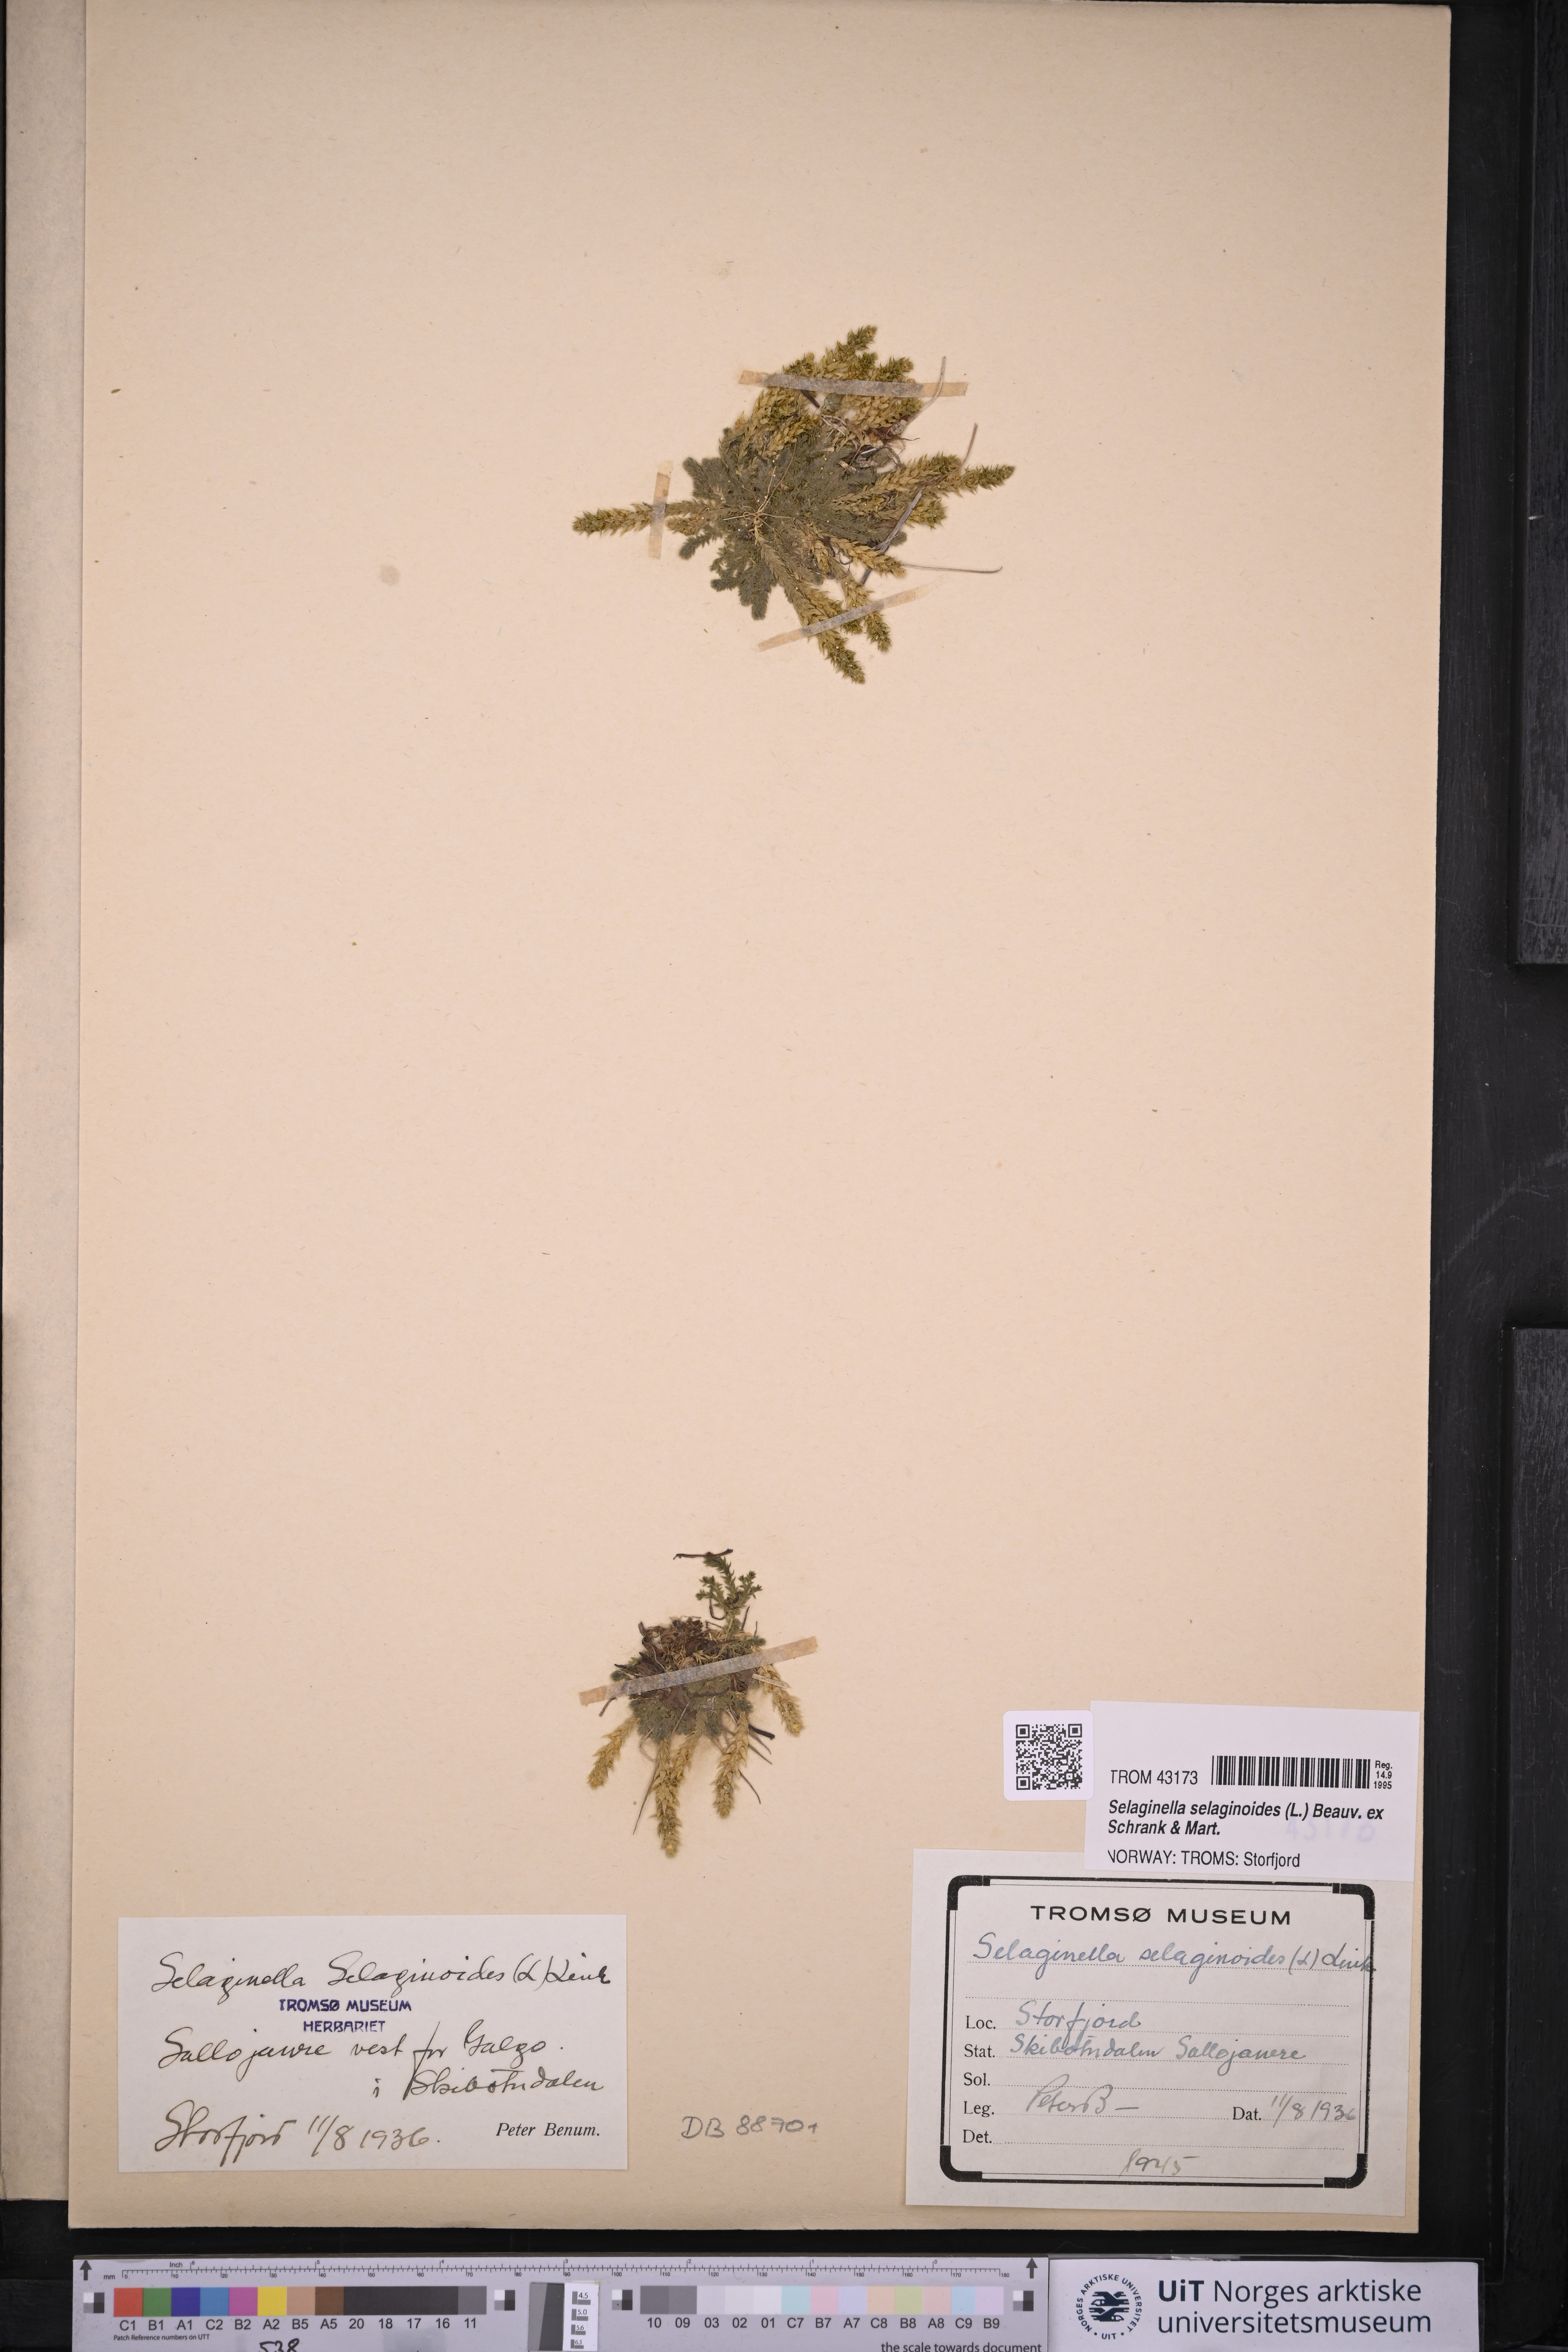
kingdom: Plantae
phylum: Tracheophyta
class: Lycopodiopsida
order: Selaginellales
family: Selaginellaceae
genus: Selaginella
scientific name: Selaginella selaginoides
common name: Prickly mountain-moss
